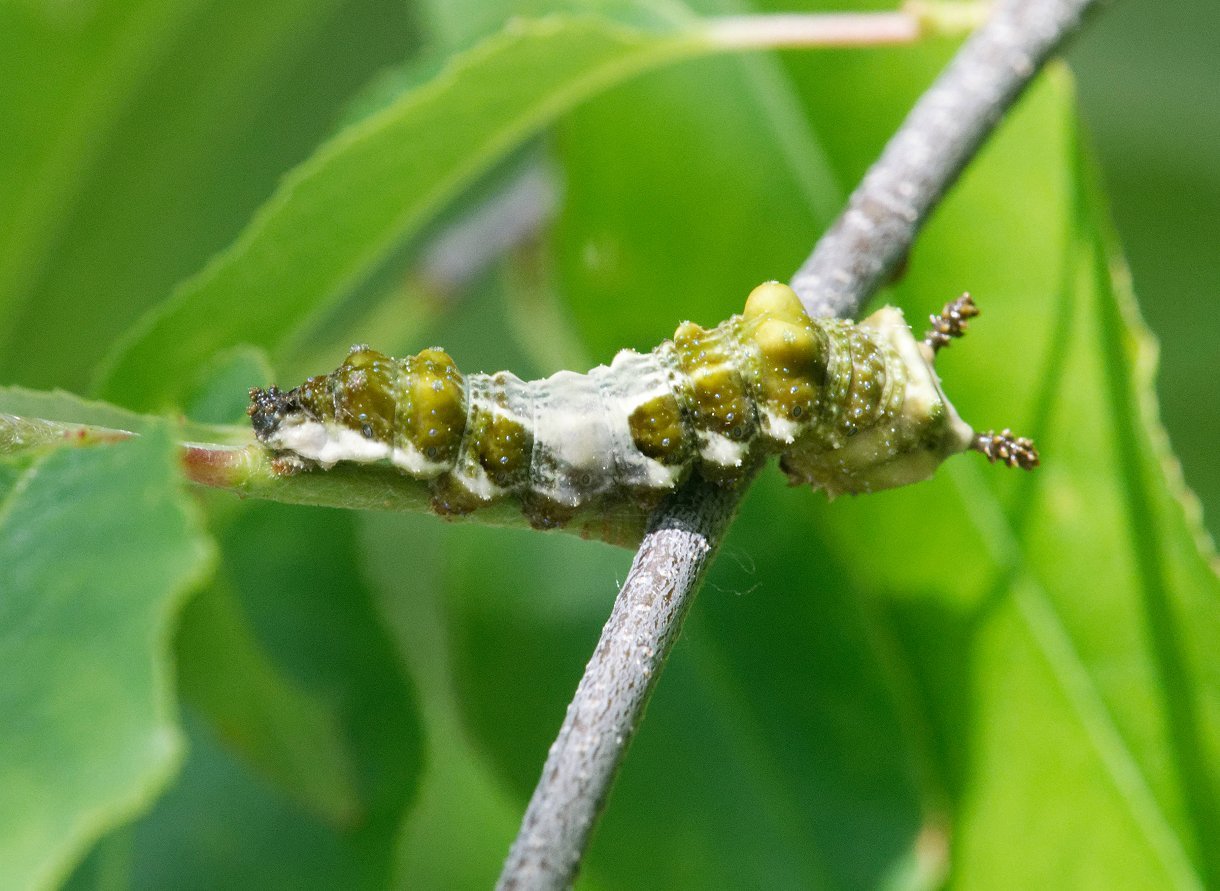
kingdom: Animalia
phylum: Arthropoda
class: Insecta
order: Lepidoptera
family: Nymphalidae
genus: Limenitis
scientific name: Limenitis arthemis
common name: Red-spotted Admiral
